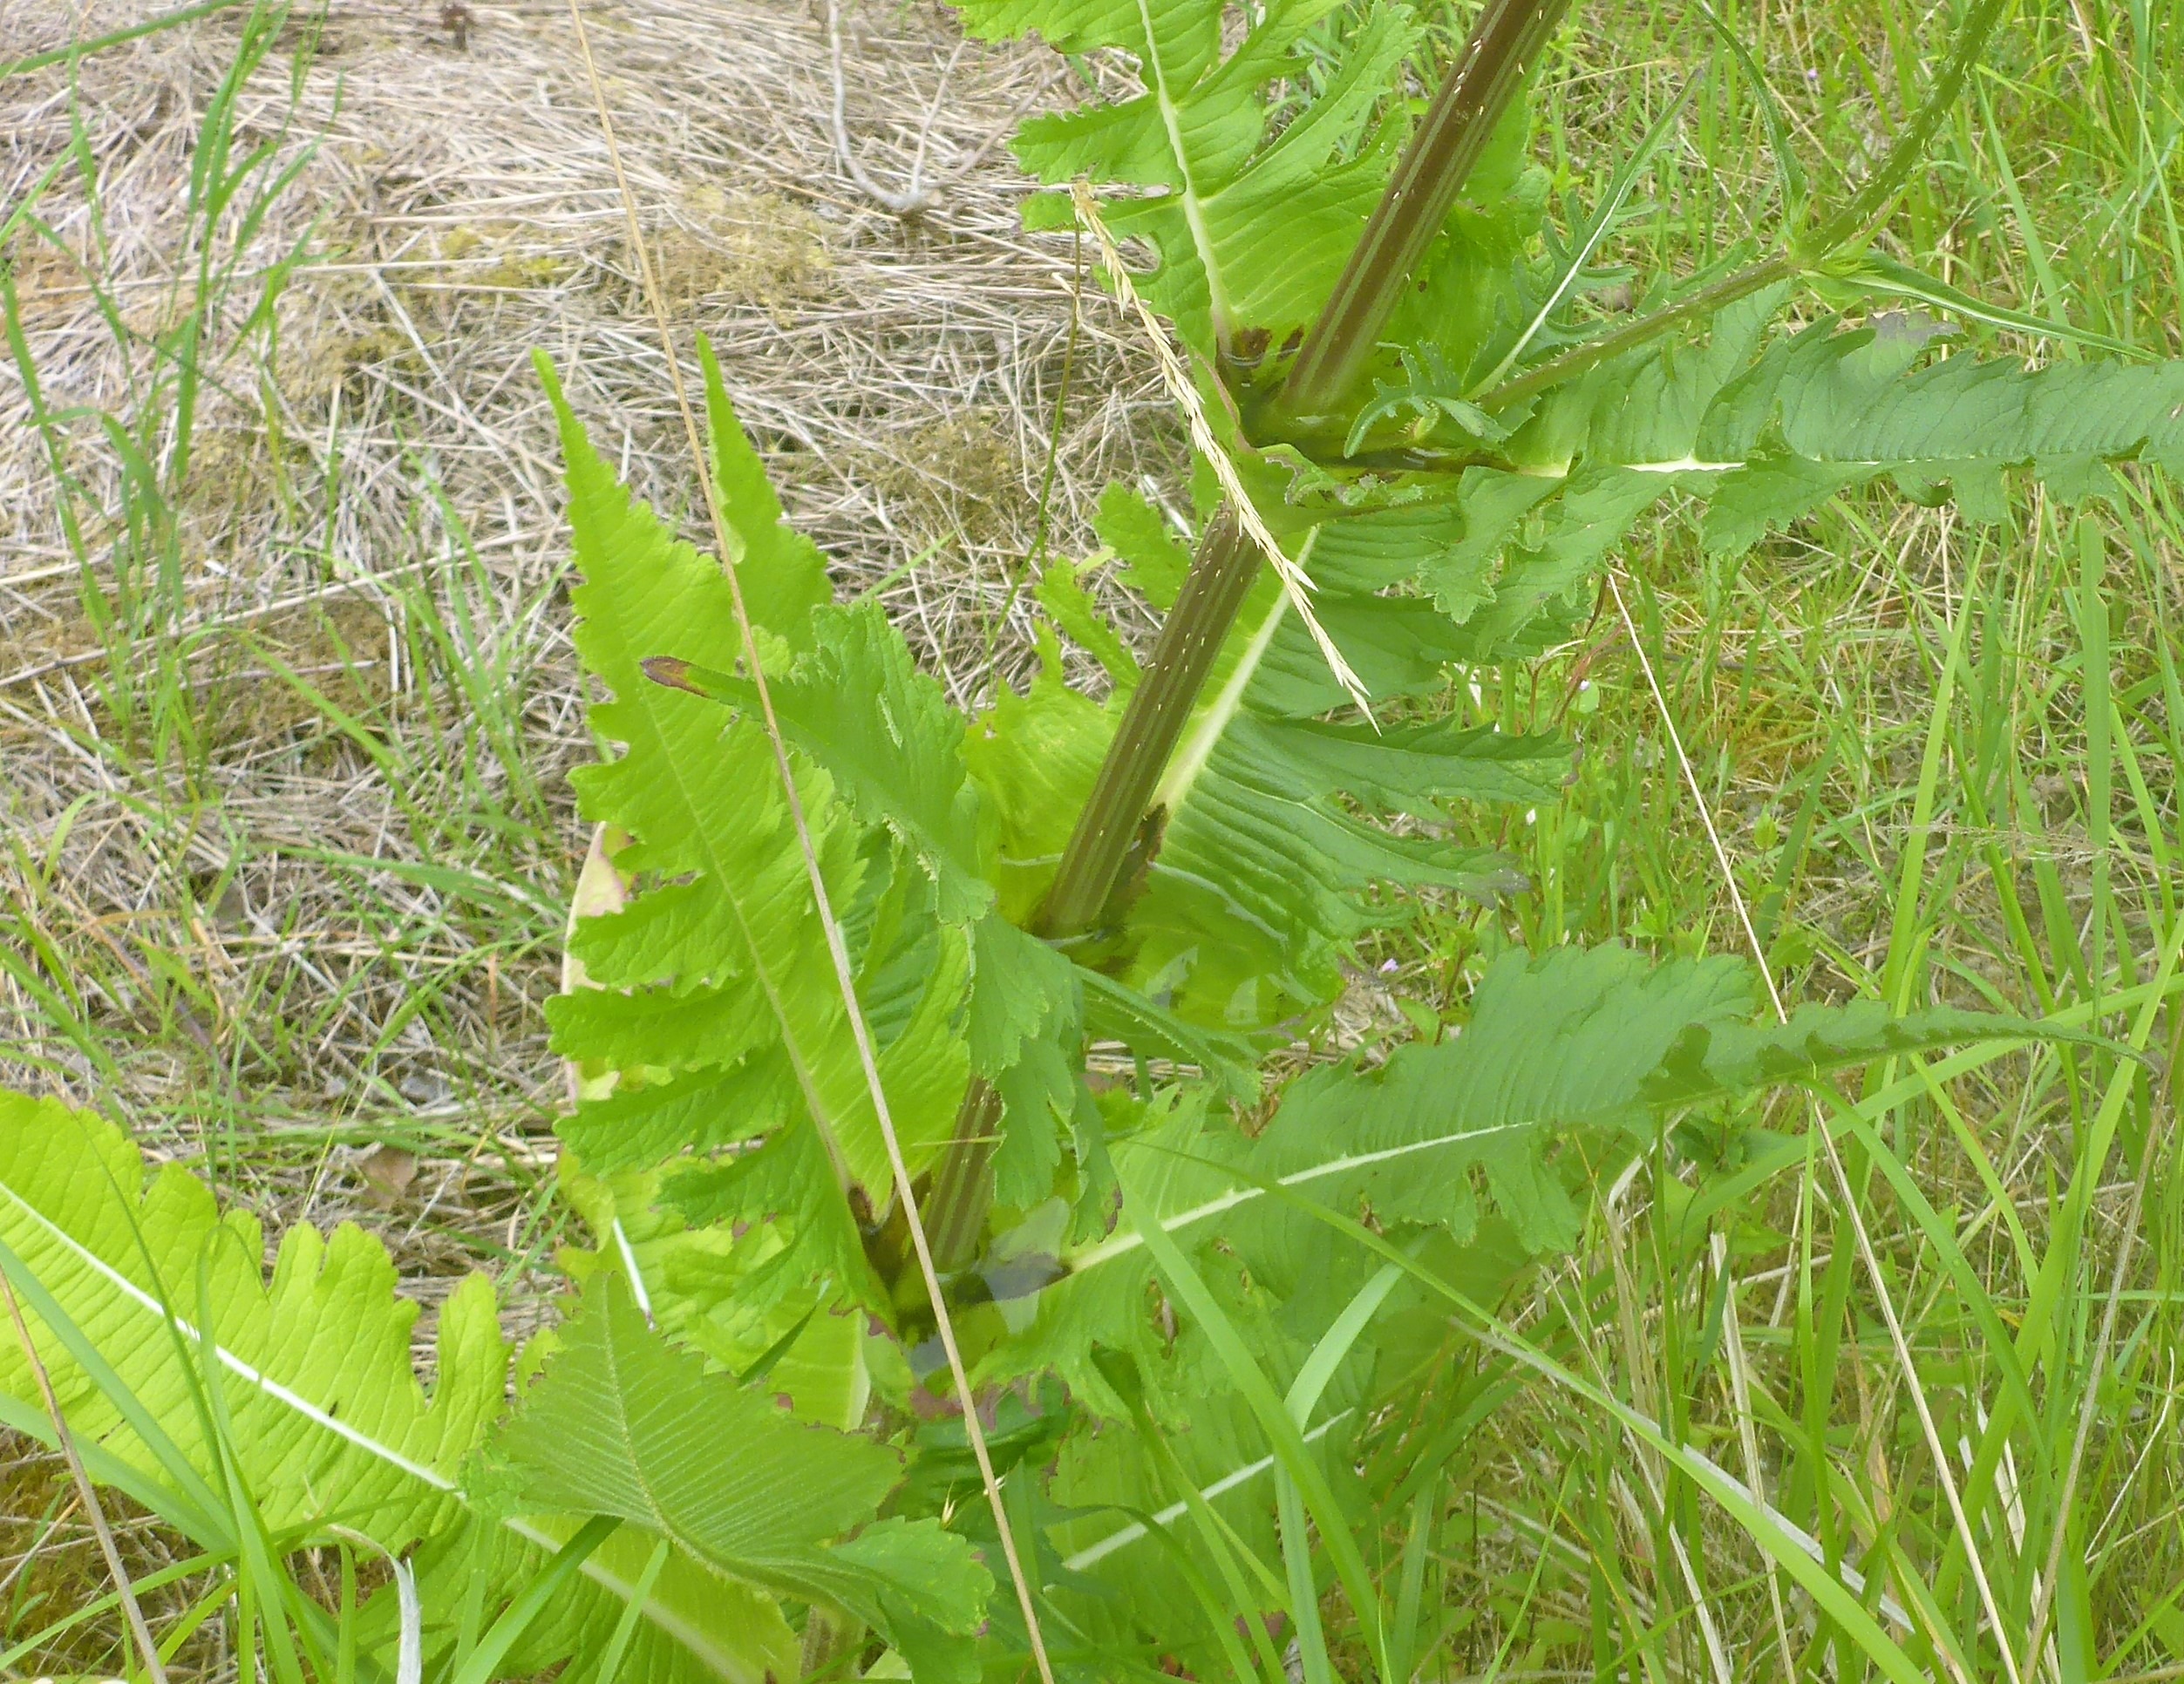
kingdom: Plantae
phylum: Tracheophyta
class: Magnoliopsida
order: Dipsacales
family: Caprifoliaceae
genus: Dipsacus
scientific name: Dipsacus laciniatus
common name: Fliget kartebolle
